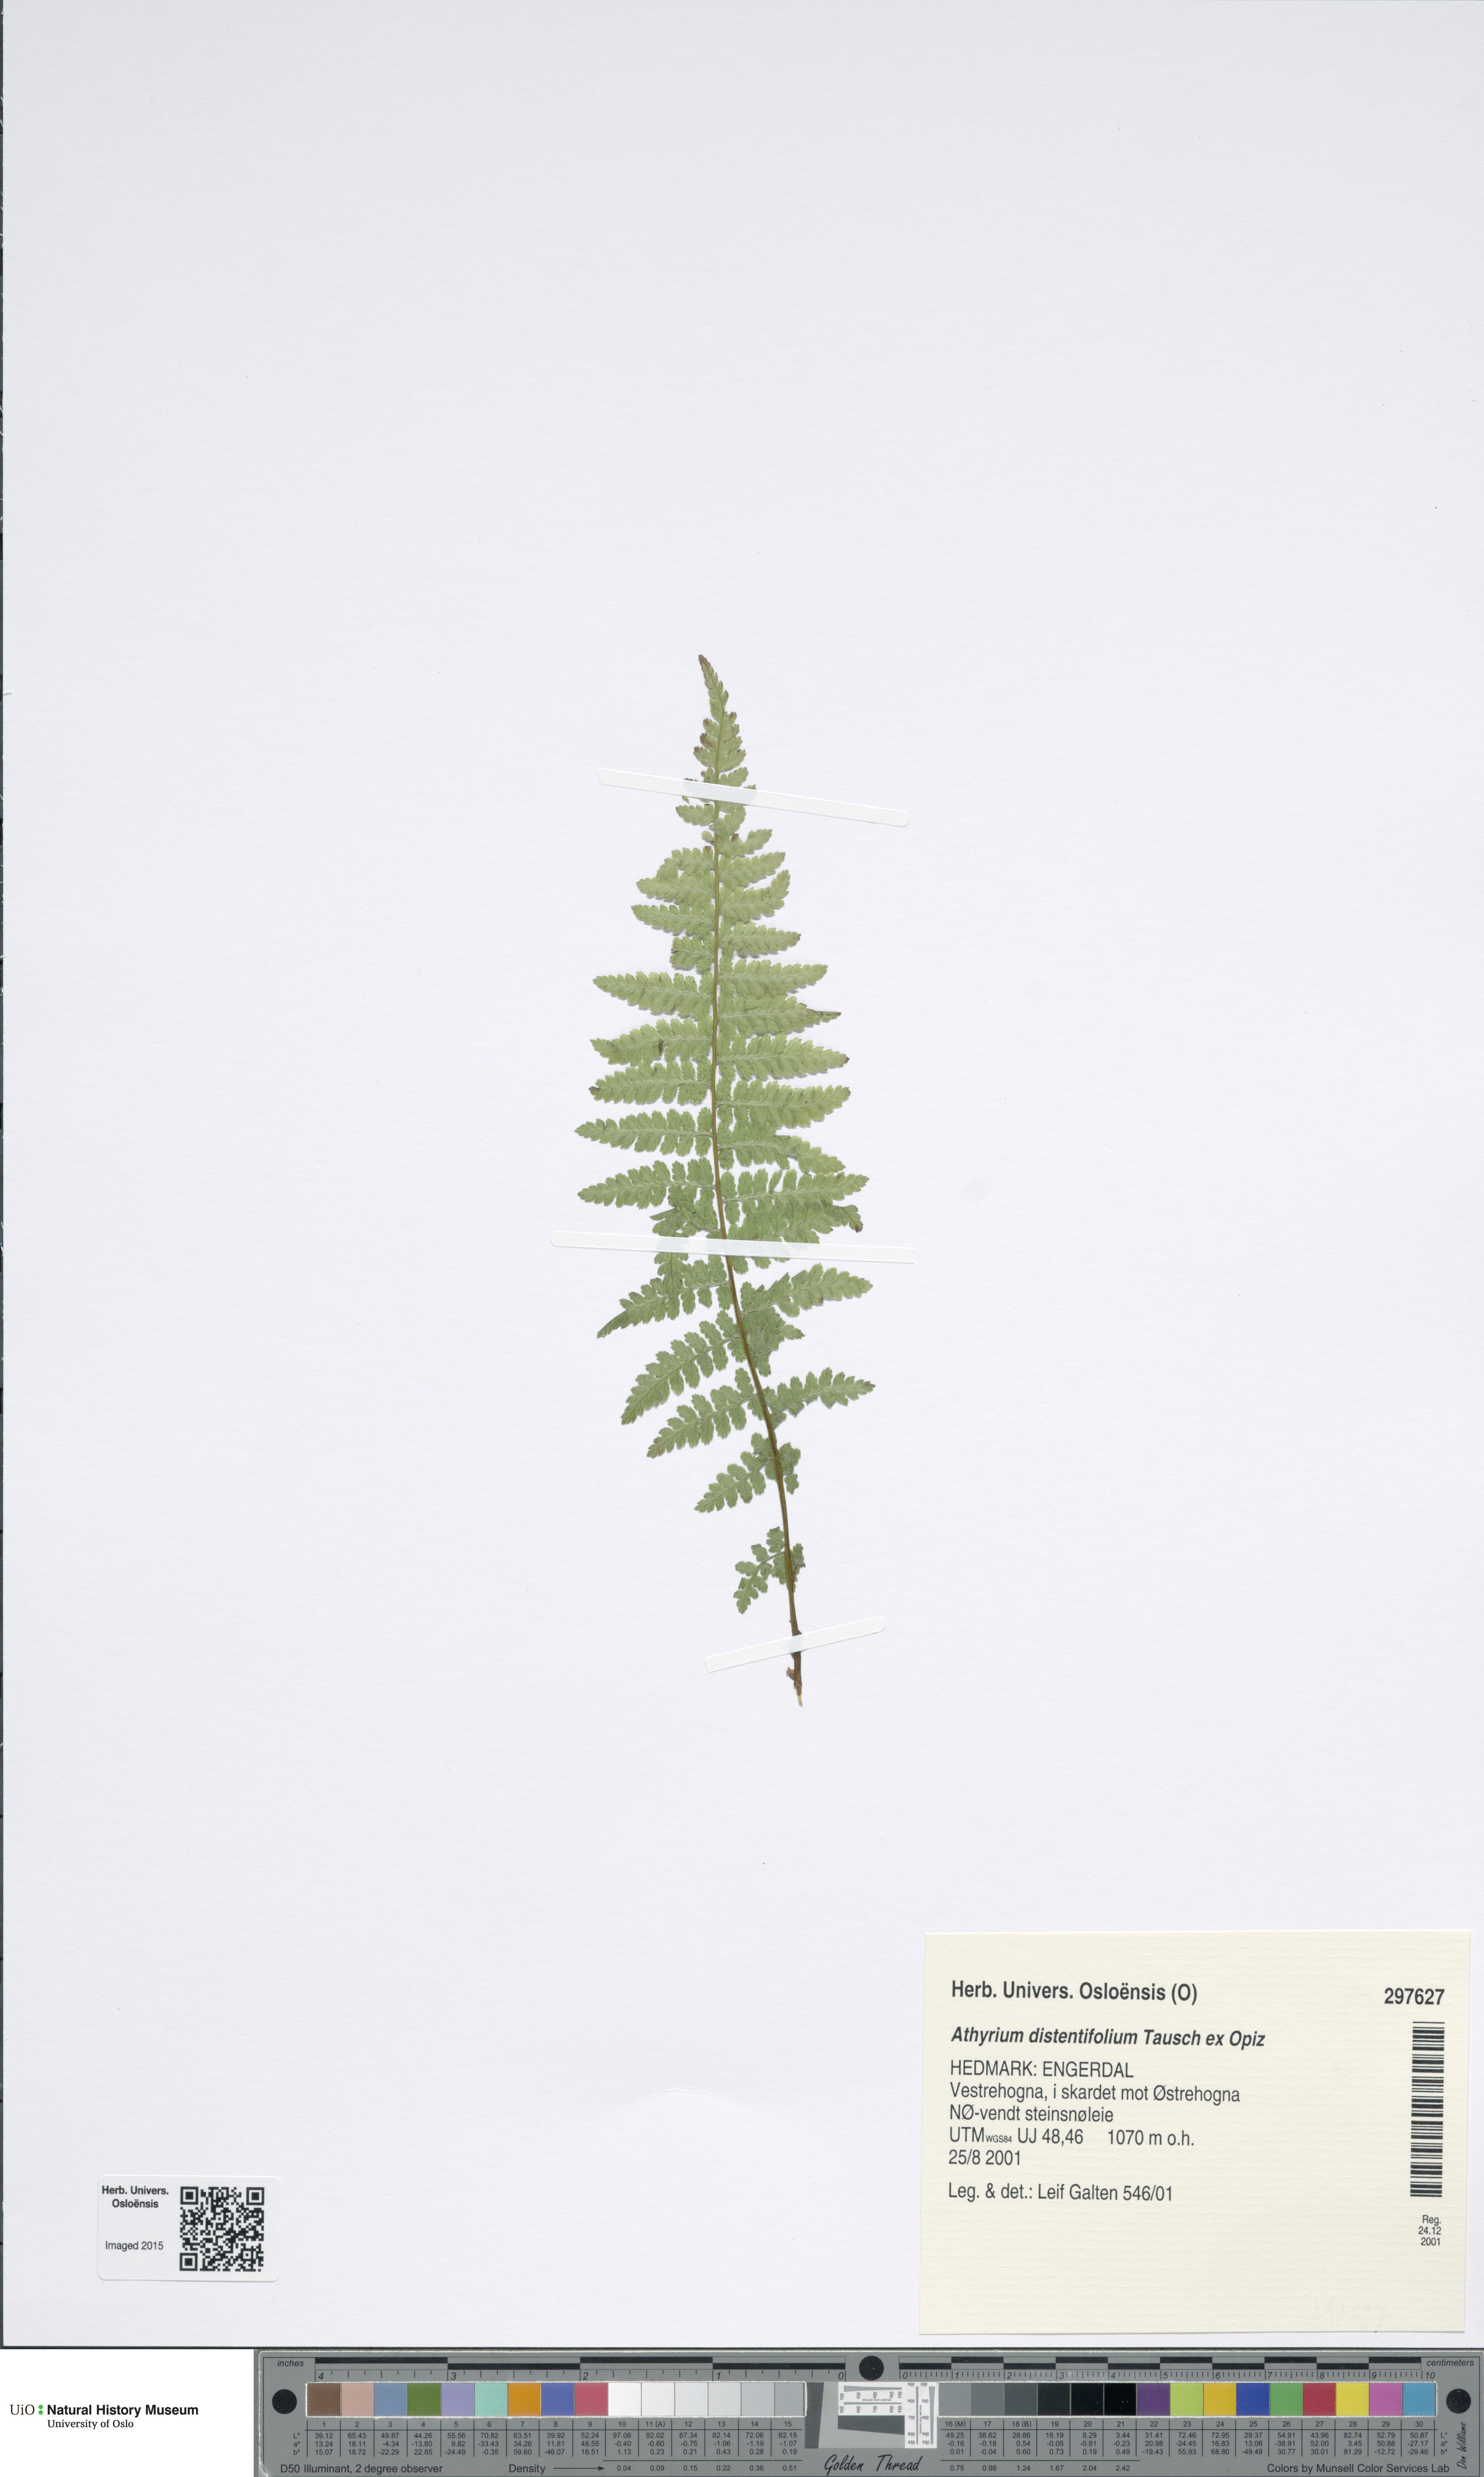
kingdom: Plantae
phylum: Tracheophyta
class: Polypodiopsida
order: Polypodiales
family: Athyriaceae
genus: Pseudathyrium
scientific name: Pseudathyrium alpestre
